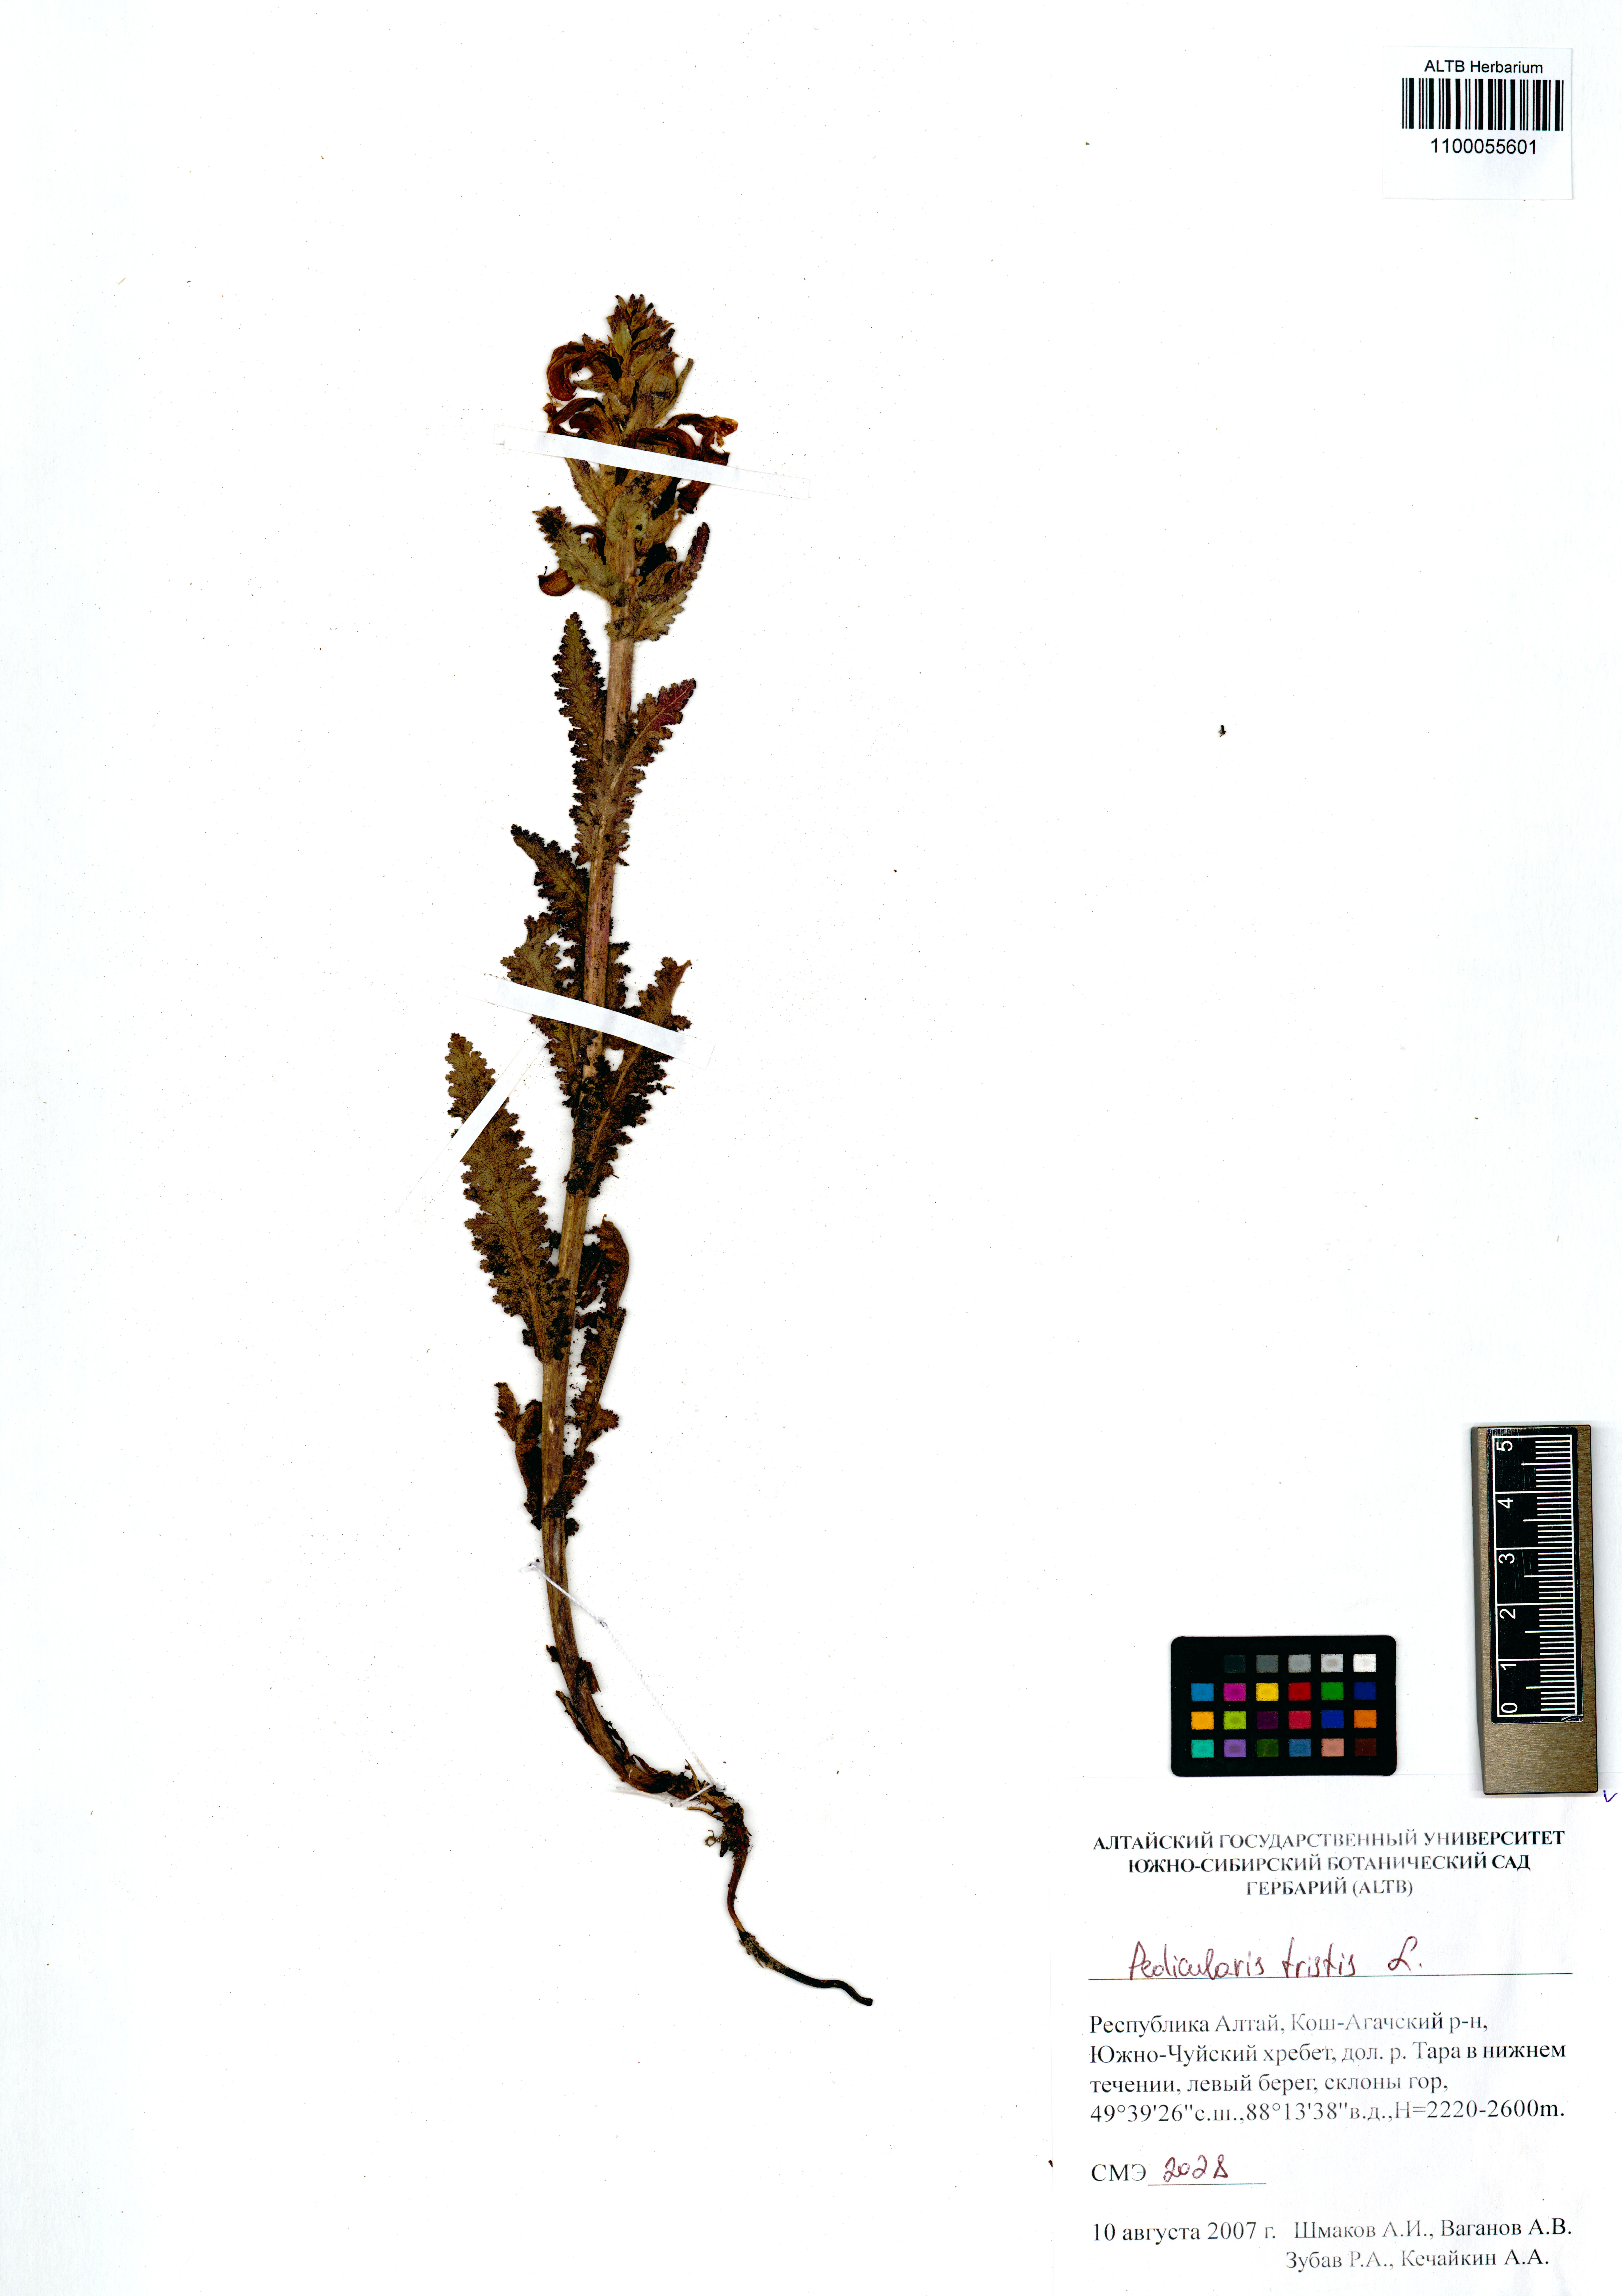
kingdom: Plantae
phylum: Tracheophyta
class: Magnoliopsida
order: Lamiales
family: Orobanchaceae
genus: Pedicularis
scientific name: Pedicularis tristis
